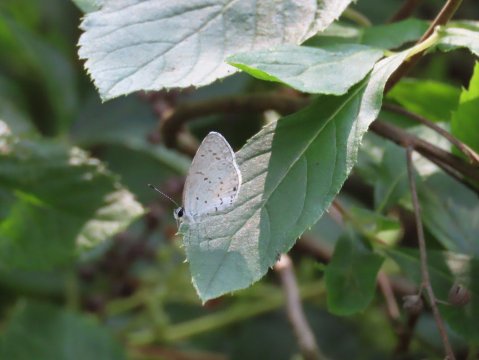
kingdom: Animalia
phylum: Arthropoda
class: Insecta
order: Lepidoptera
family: Lycaenidae
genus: Cyaniris
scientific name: Cyaniris neglecta
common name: Summer Azure
